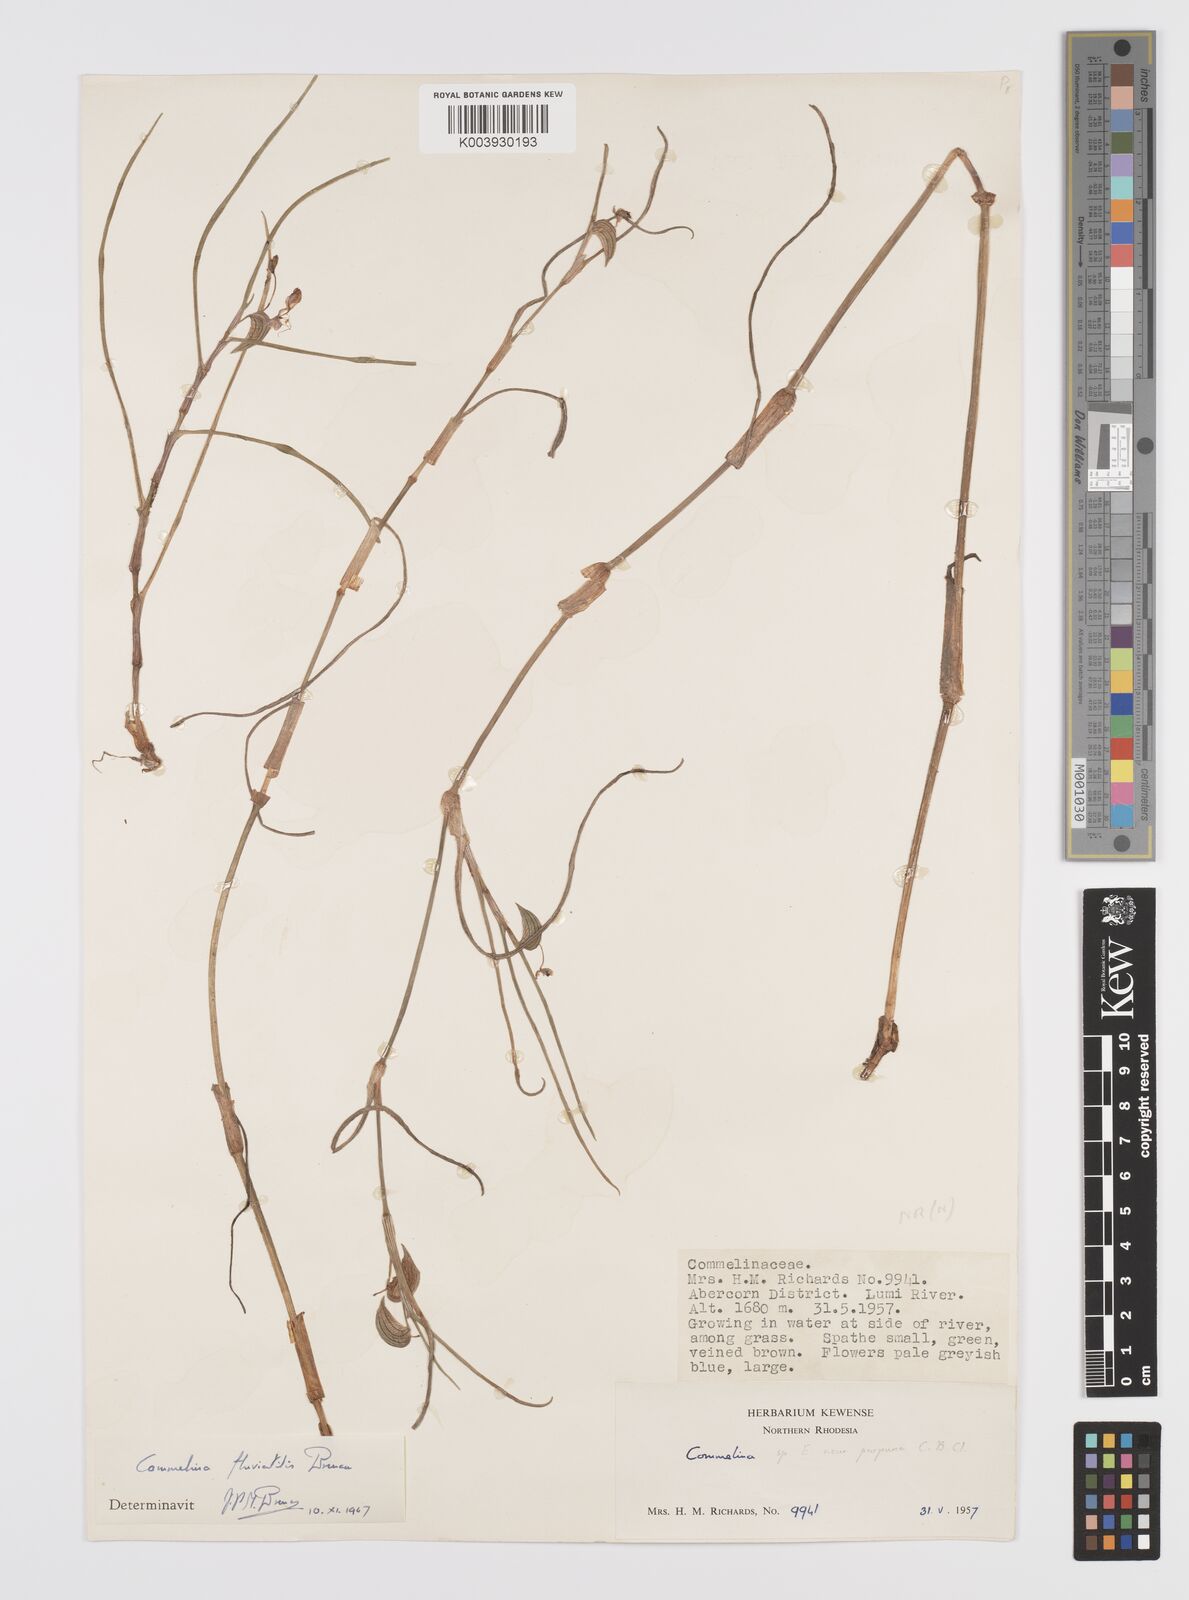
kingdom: Plantae
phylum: Tracheophyta
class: Liliopsida
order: Commelinales
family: Commelinaceae
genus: Commelina
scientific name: Commelina fluviatilis
